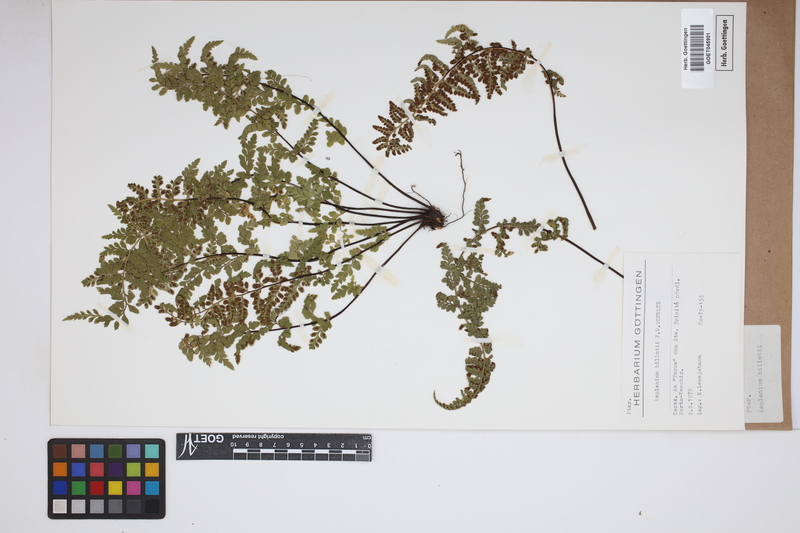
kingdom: Plantae
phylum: Tracheophyta
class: Polypodiopsida
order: Polypodiales
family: Aspleniaceae
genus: Asplenium
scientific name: Asplenium obovatum
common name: Lanceolate spleenwort
